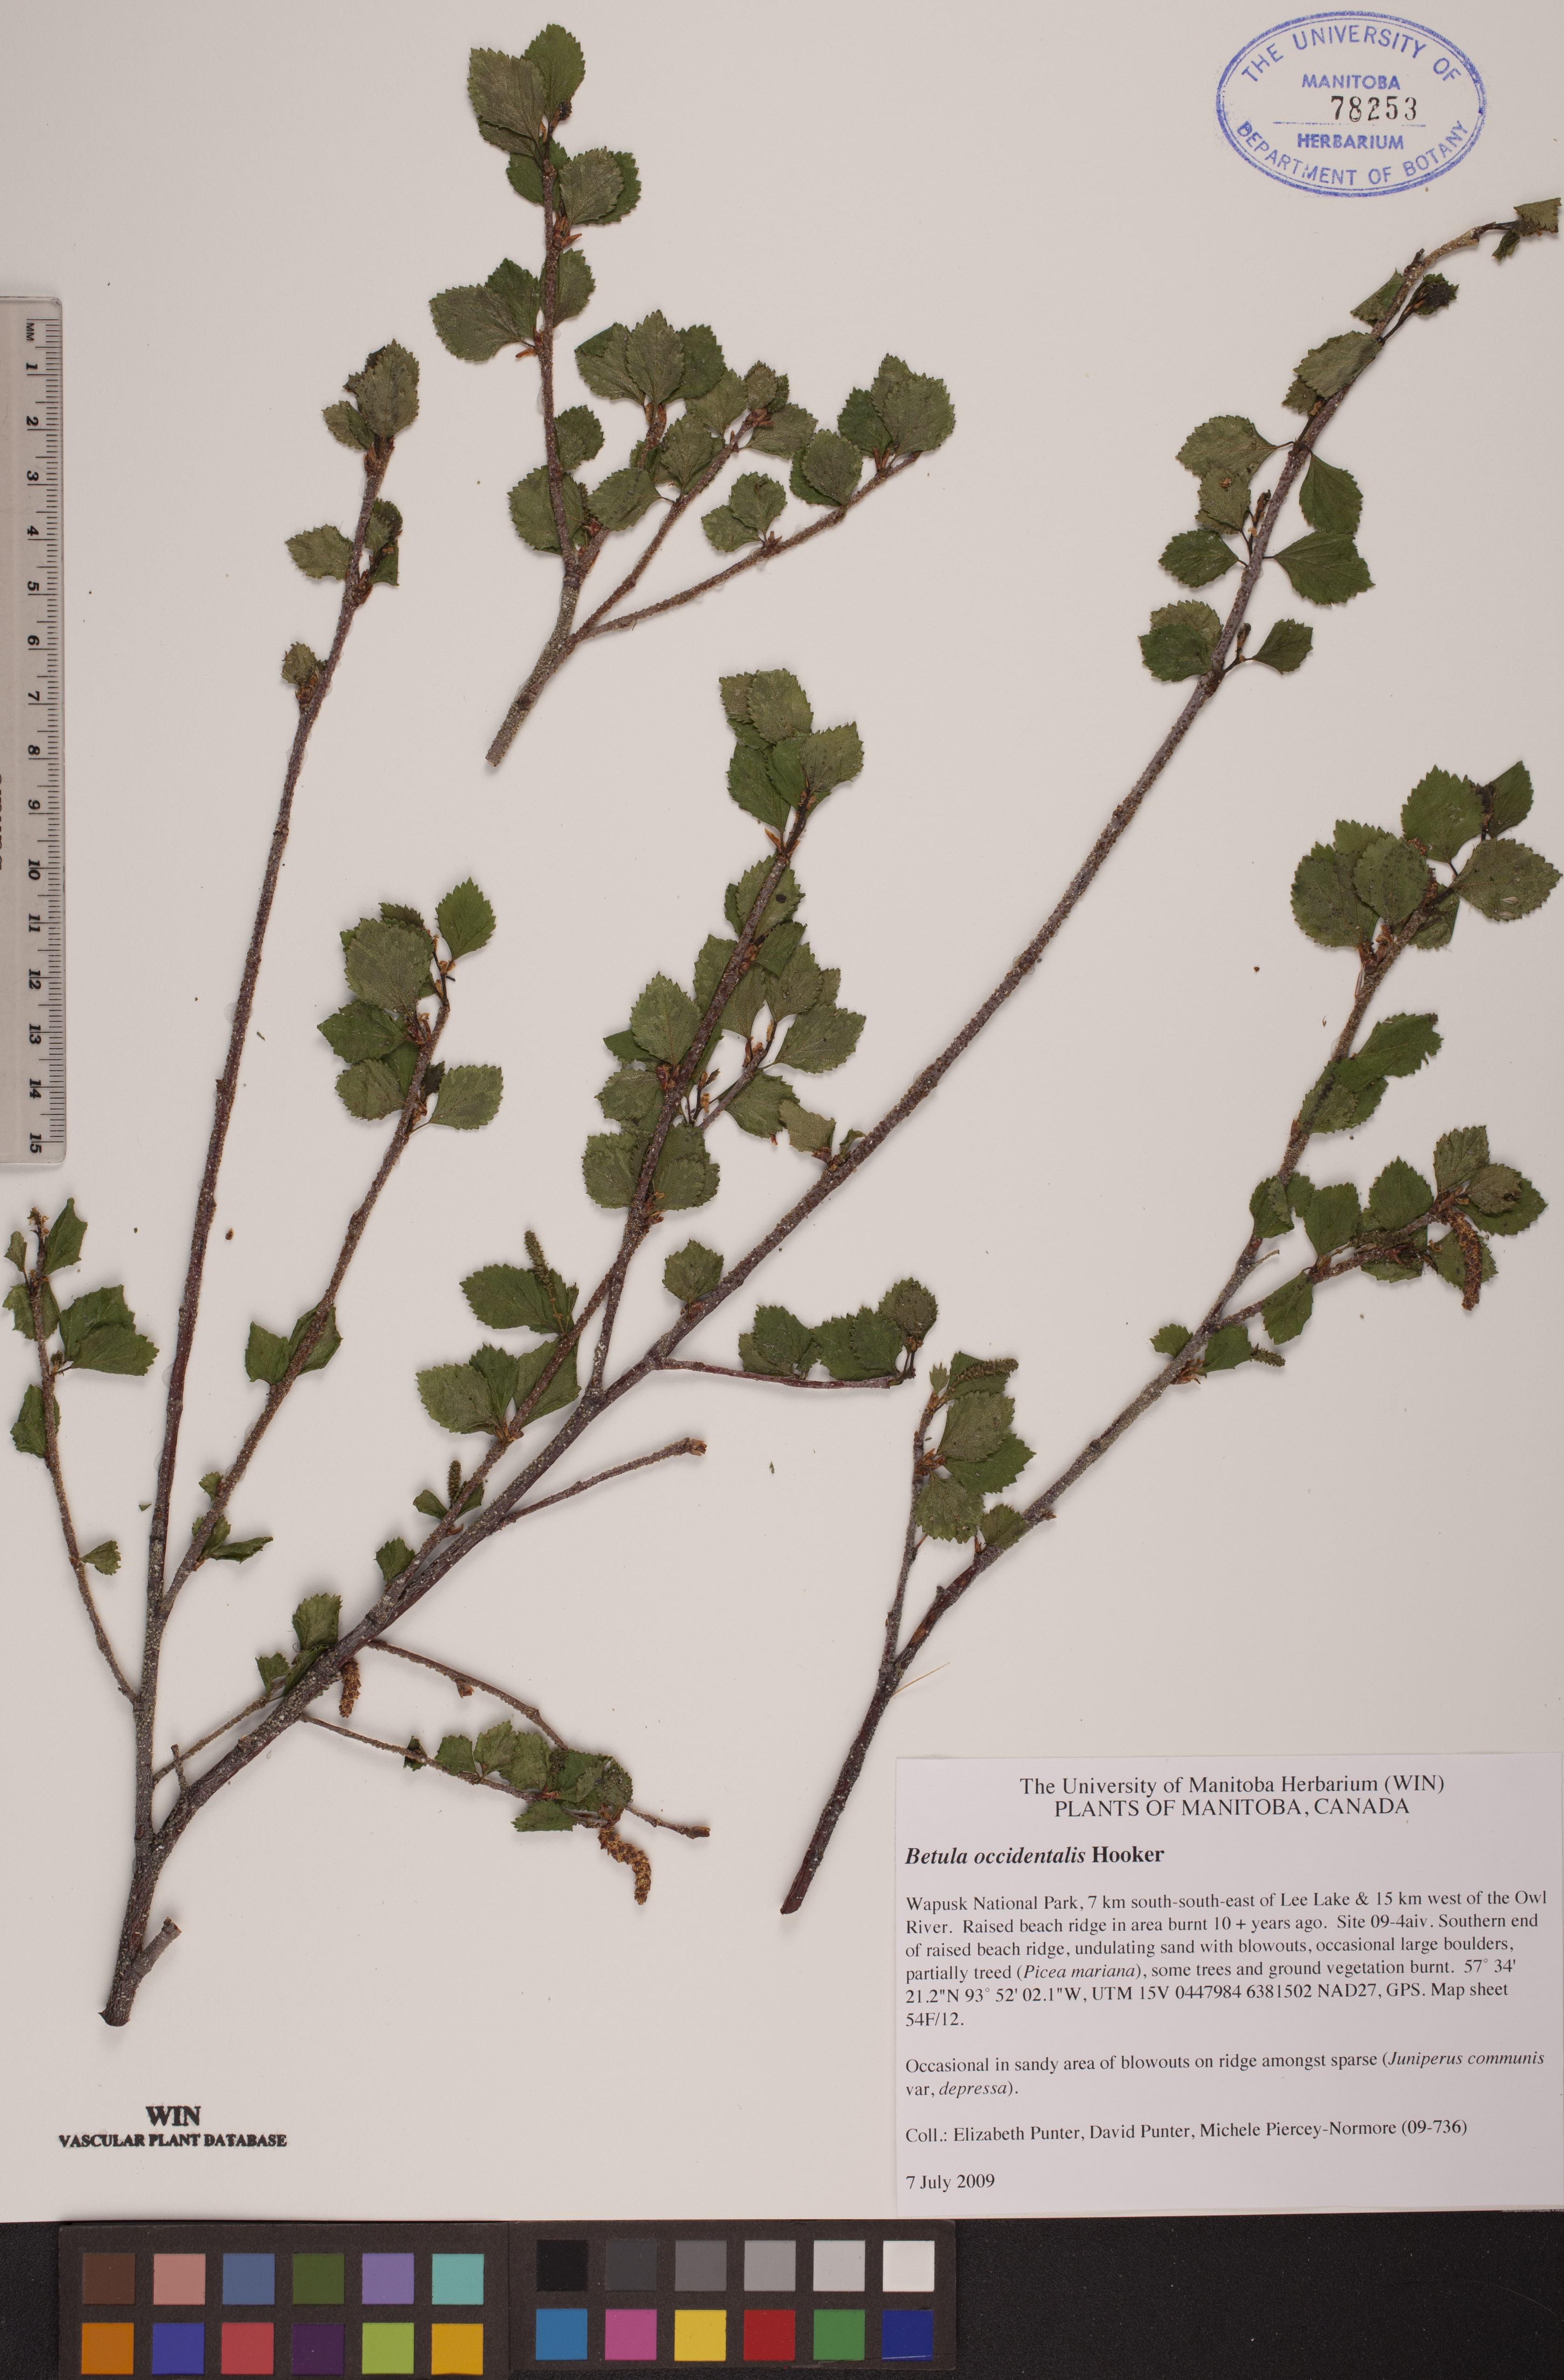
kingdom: Plantae
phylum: Tracheophyta
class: Magnoliopsida
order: Fagales
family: Betulaceae
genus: Betula
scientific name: Betula occidentalis
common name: River birch
